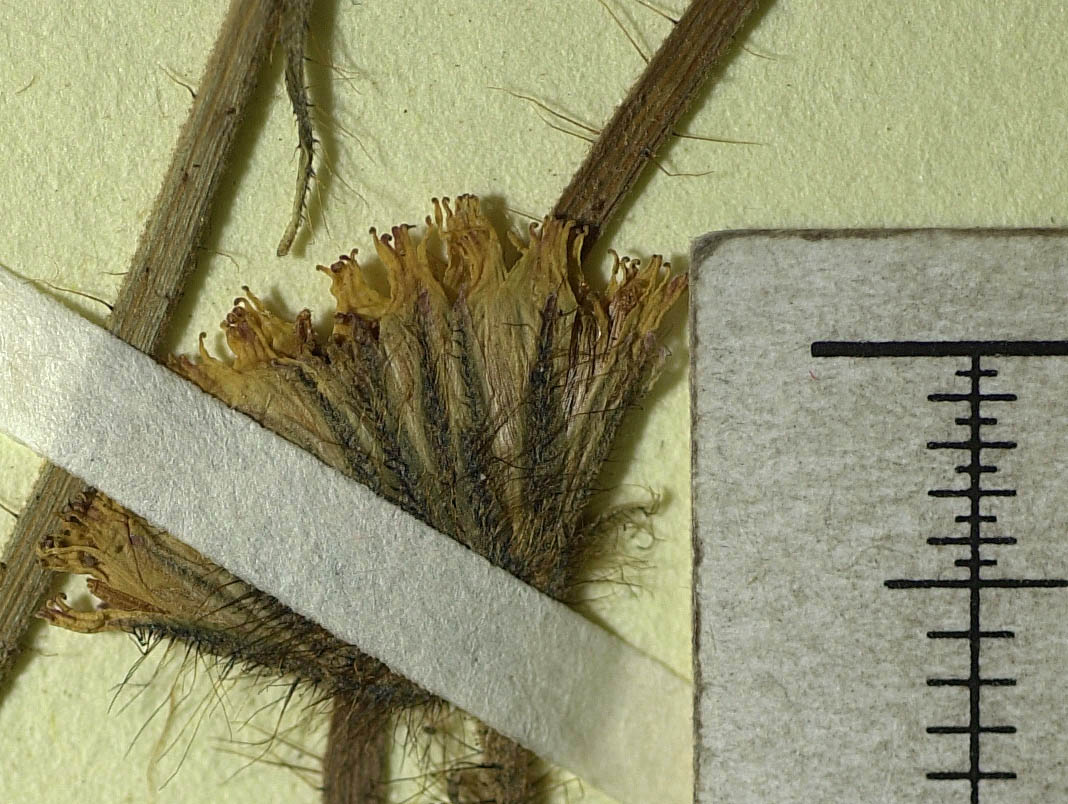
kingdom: Plantae
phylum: Tracheophyta
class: Magnoliopsida
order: Asterales
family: Asteraceae
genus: Pilosella
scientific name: Pilosella leptoclados
